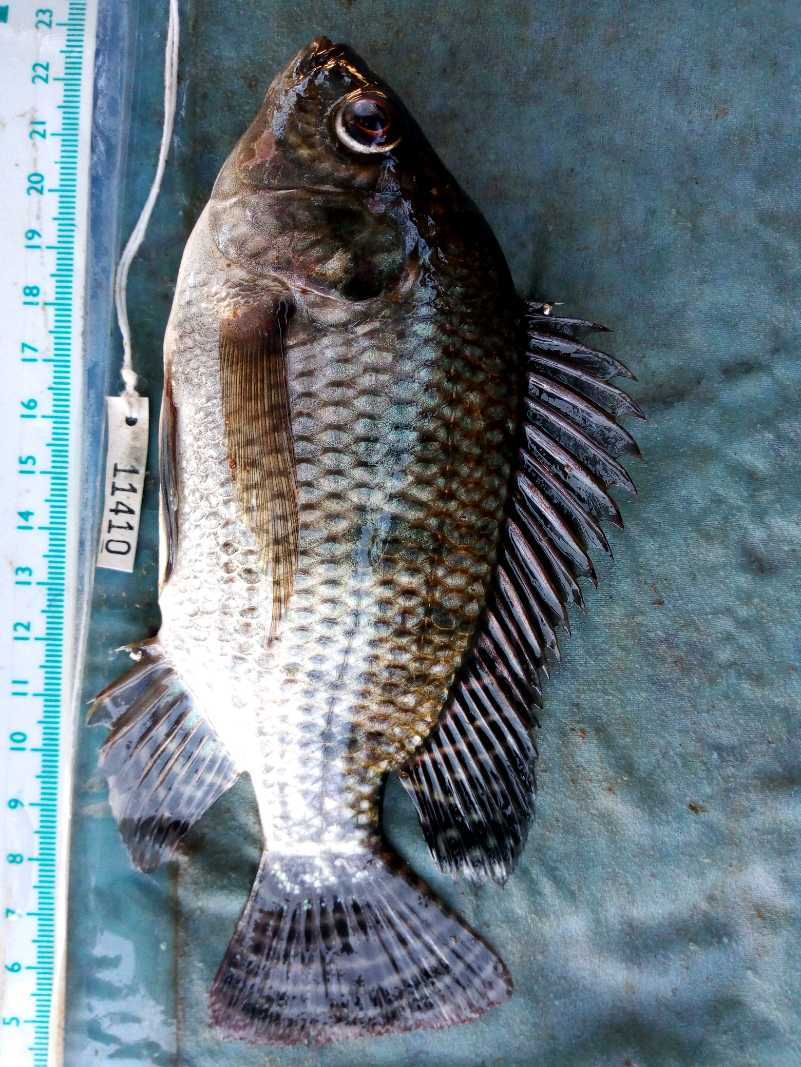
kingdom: Animalia
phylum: Chordata
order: Perciformes
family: Cichlidae
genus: Oreochromis
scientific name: Oreochromis niloticus
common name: Nile tilapia
